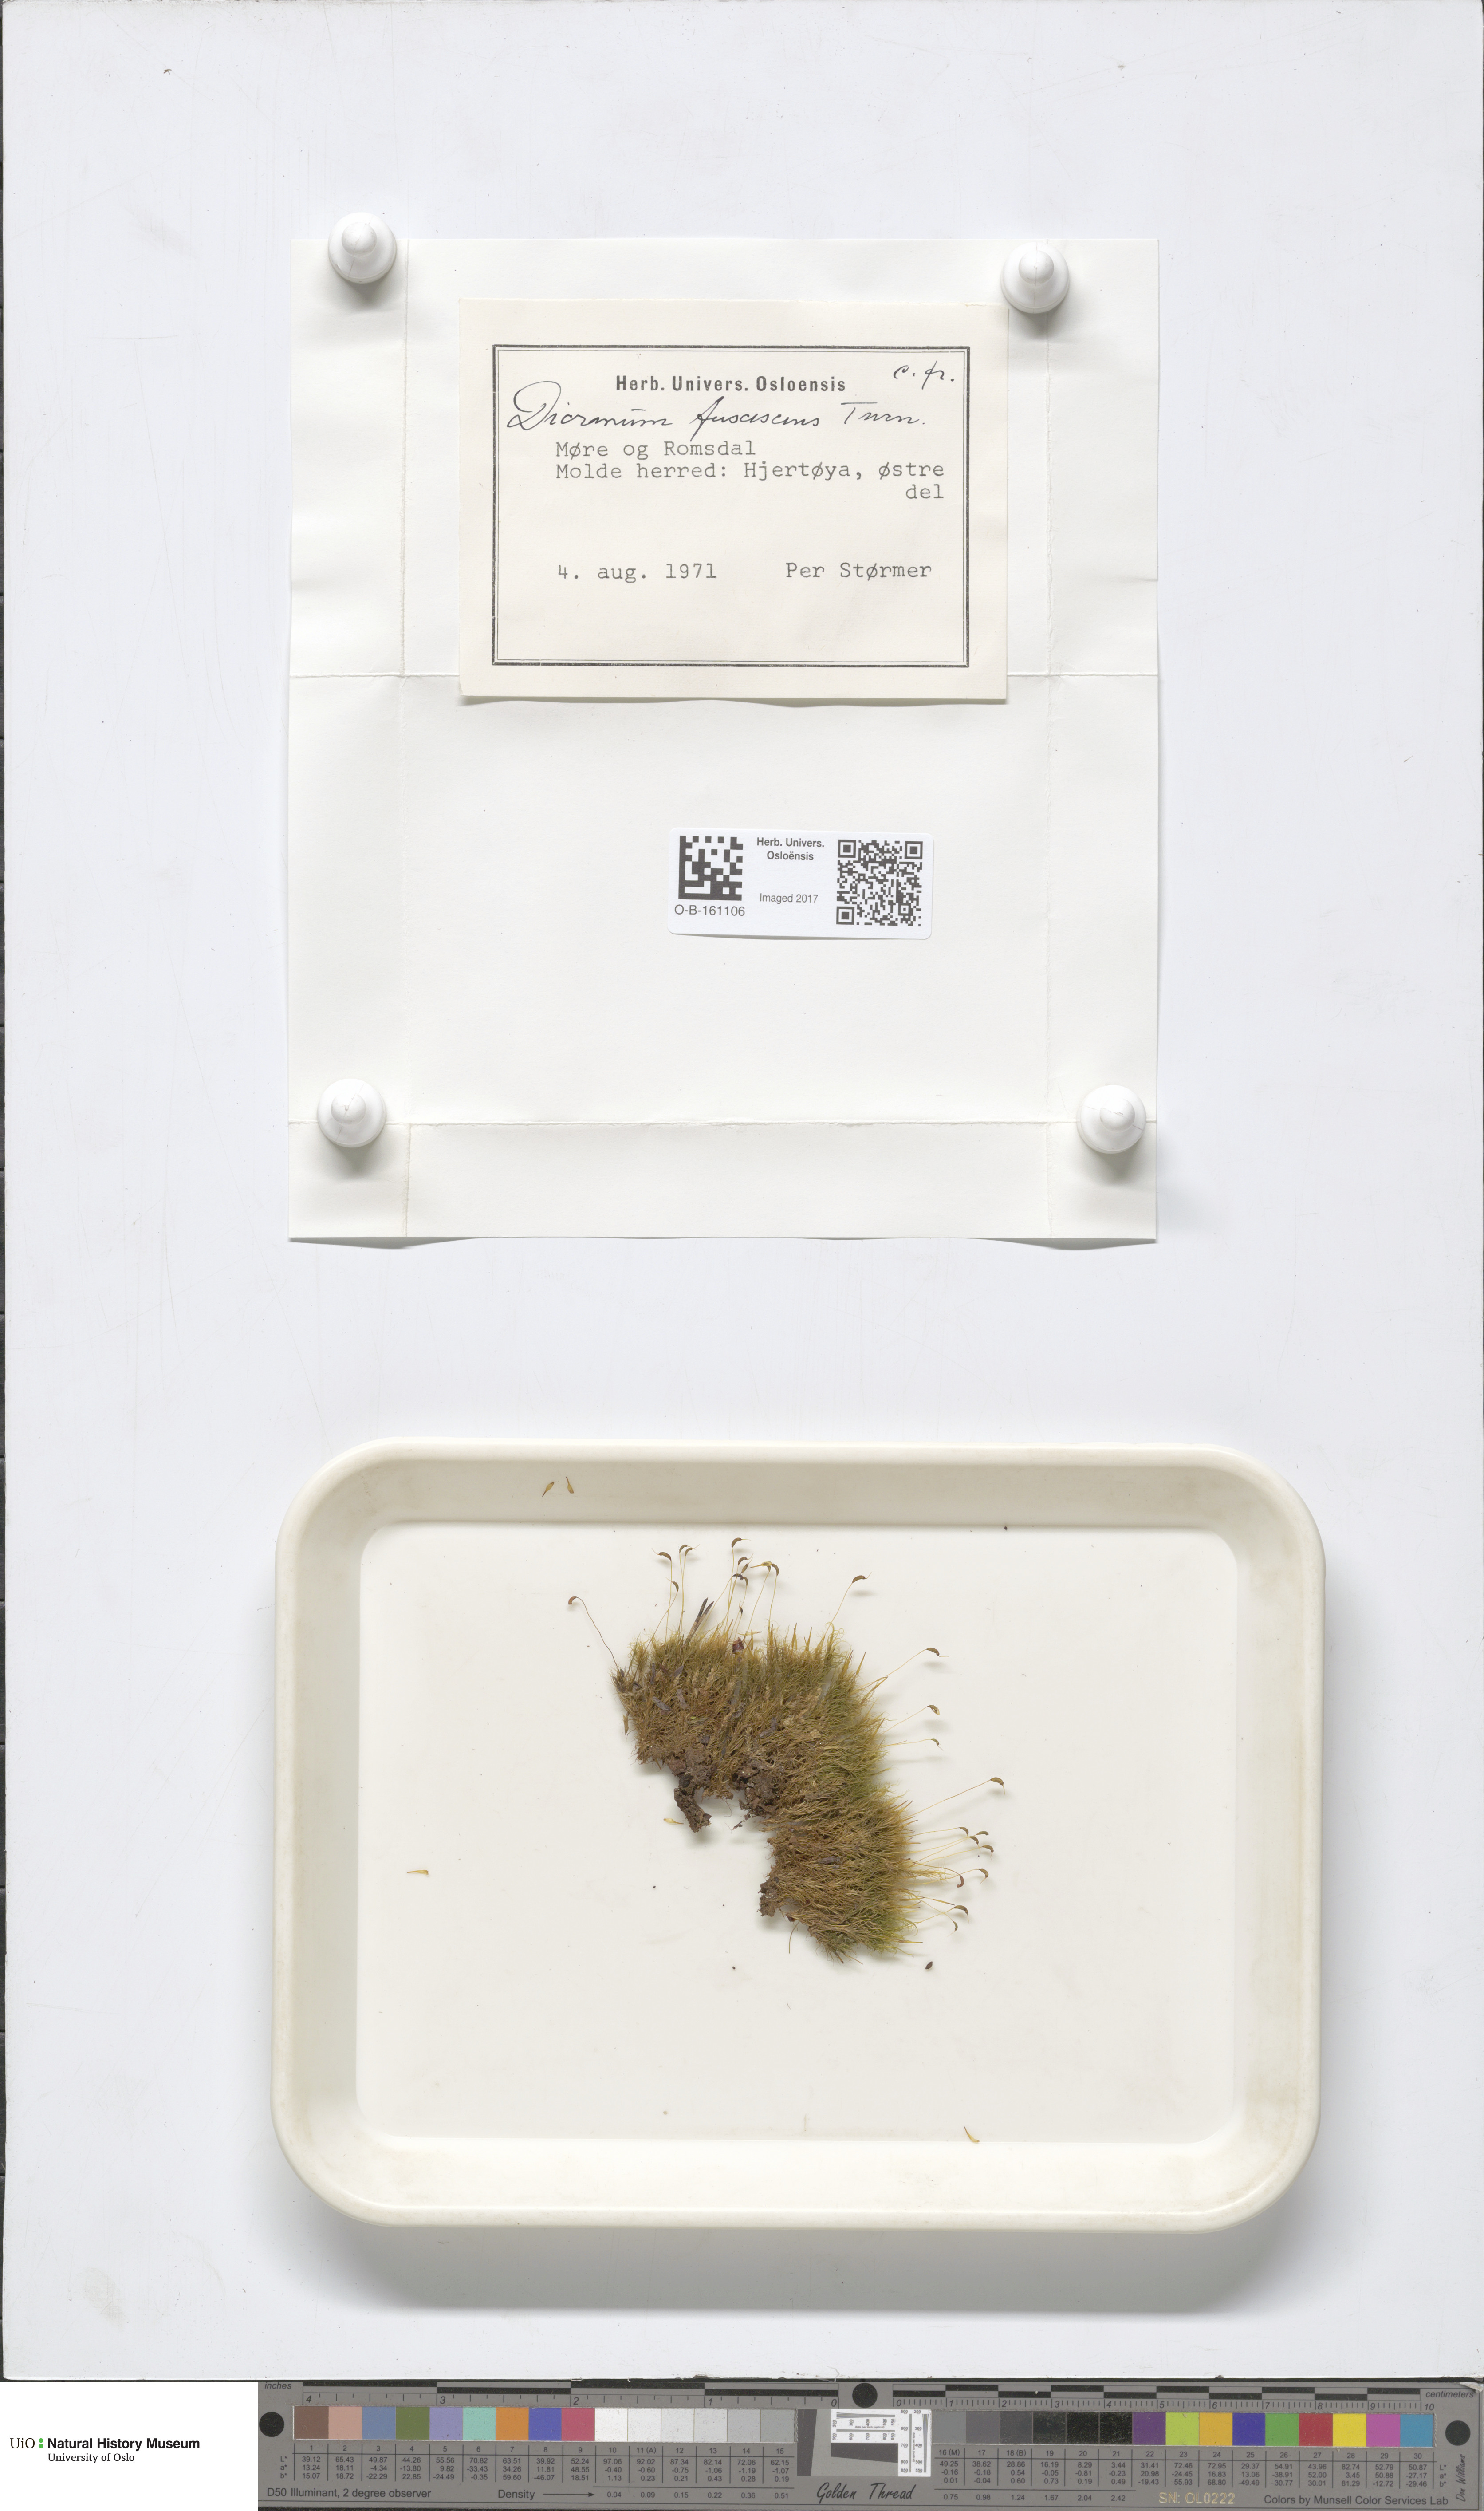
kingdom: Plantae
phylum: Bryophyta
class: Bryopsida
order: Dicranales
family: Dicranaceae
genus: Dicranum
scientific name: Dicranum fuscescens
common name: Curly heron's-bill moss
